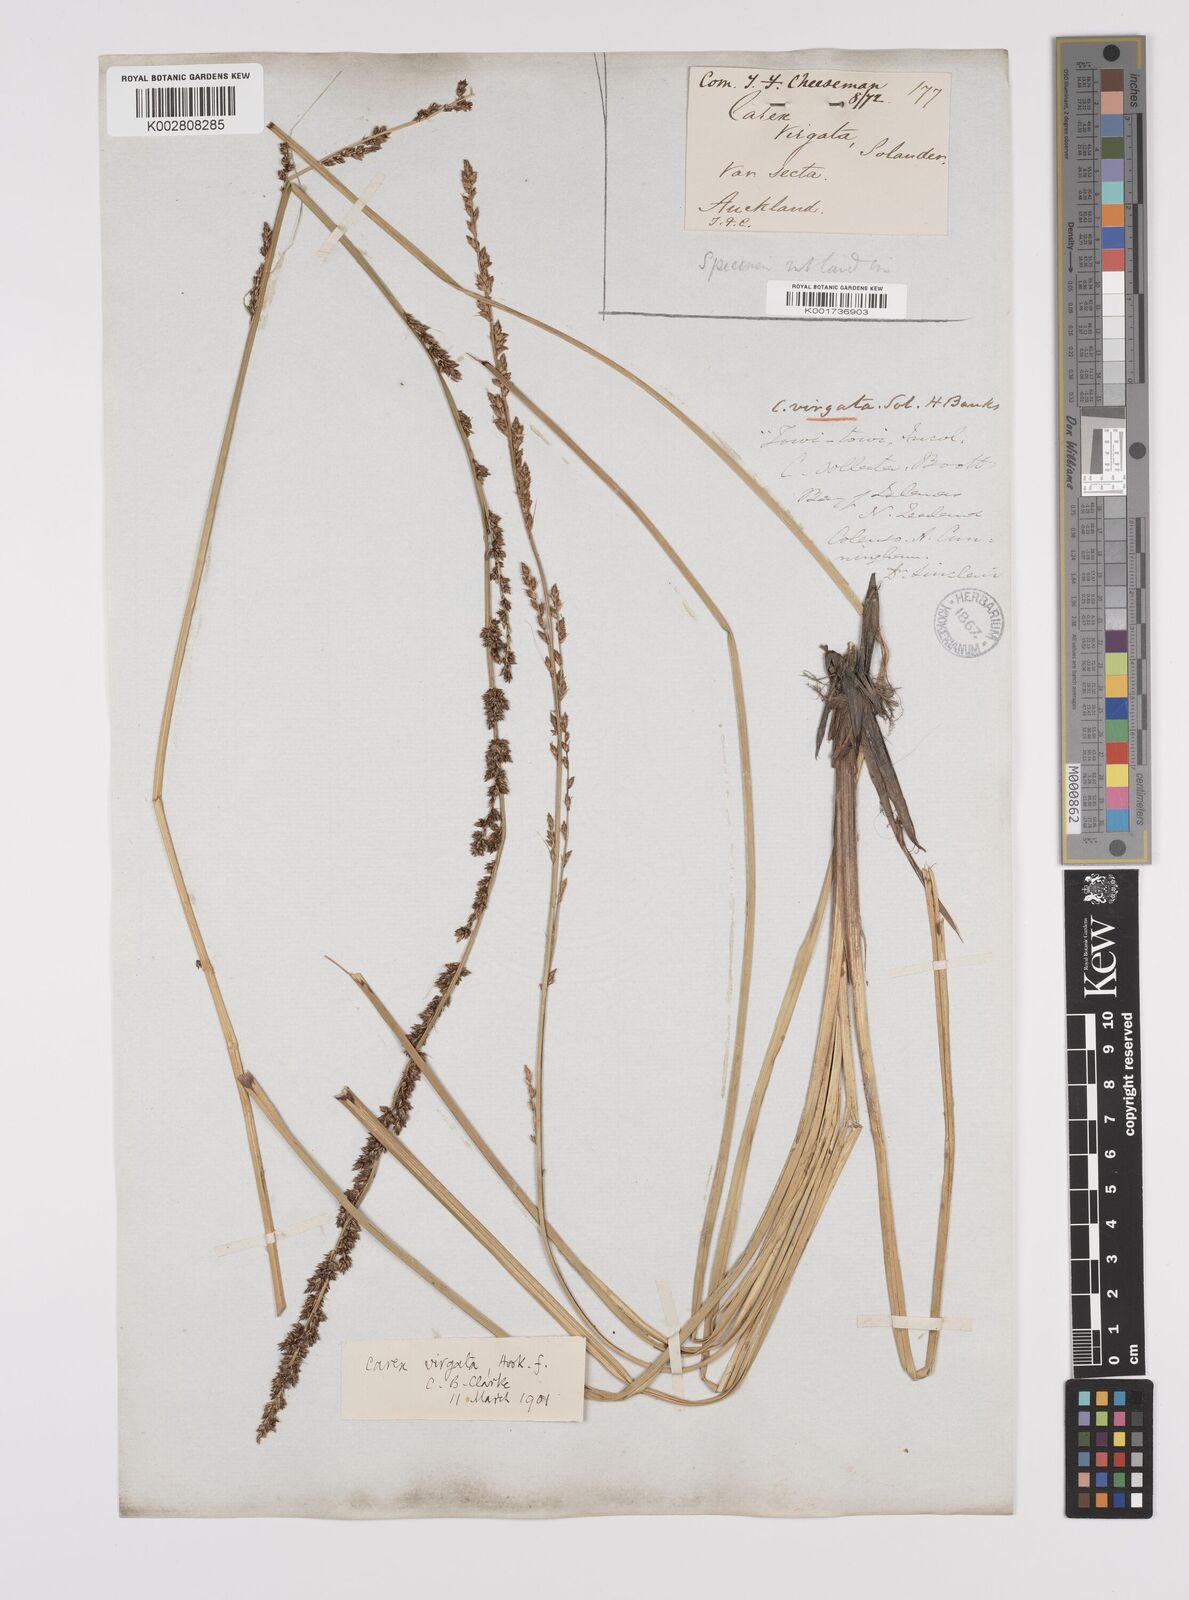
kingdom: Plantae
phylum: Tracheophyta
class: Liliopsida
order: Poales
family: Cyperaceae
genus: Carex
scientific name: Carex appressa
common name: Tussock sedge
